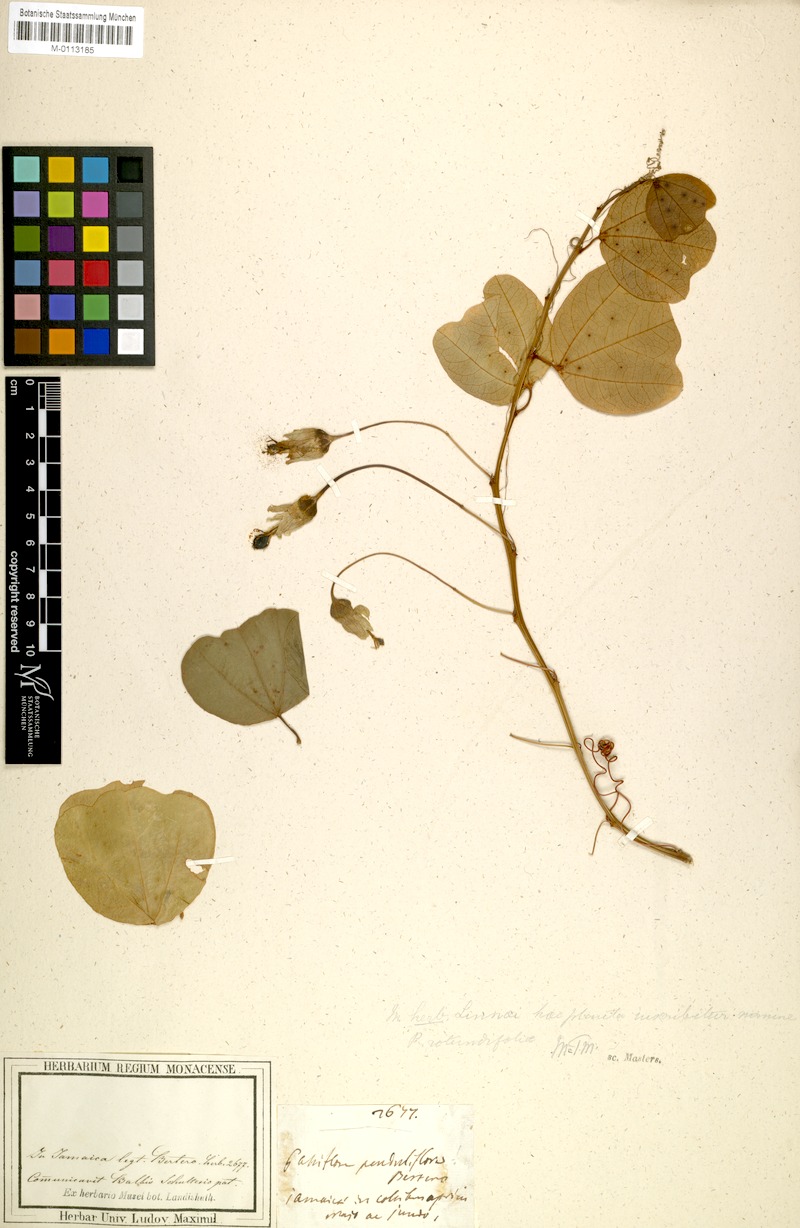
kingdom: Plantae
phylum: Tracheophyta
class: Magnoliopsida
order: Malpighiales
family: Passifloraceae
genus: Passiflora
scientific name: Passiflora rotundifolia
